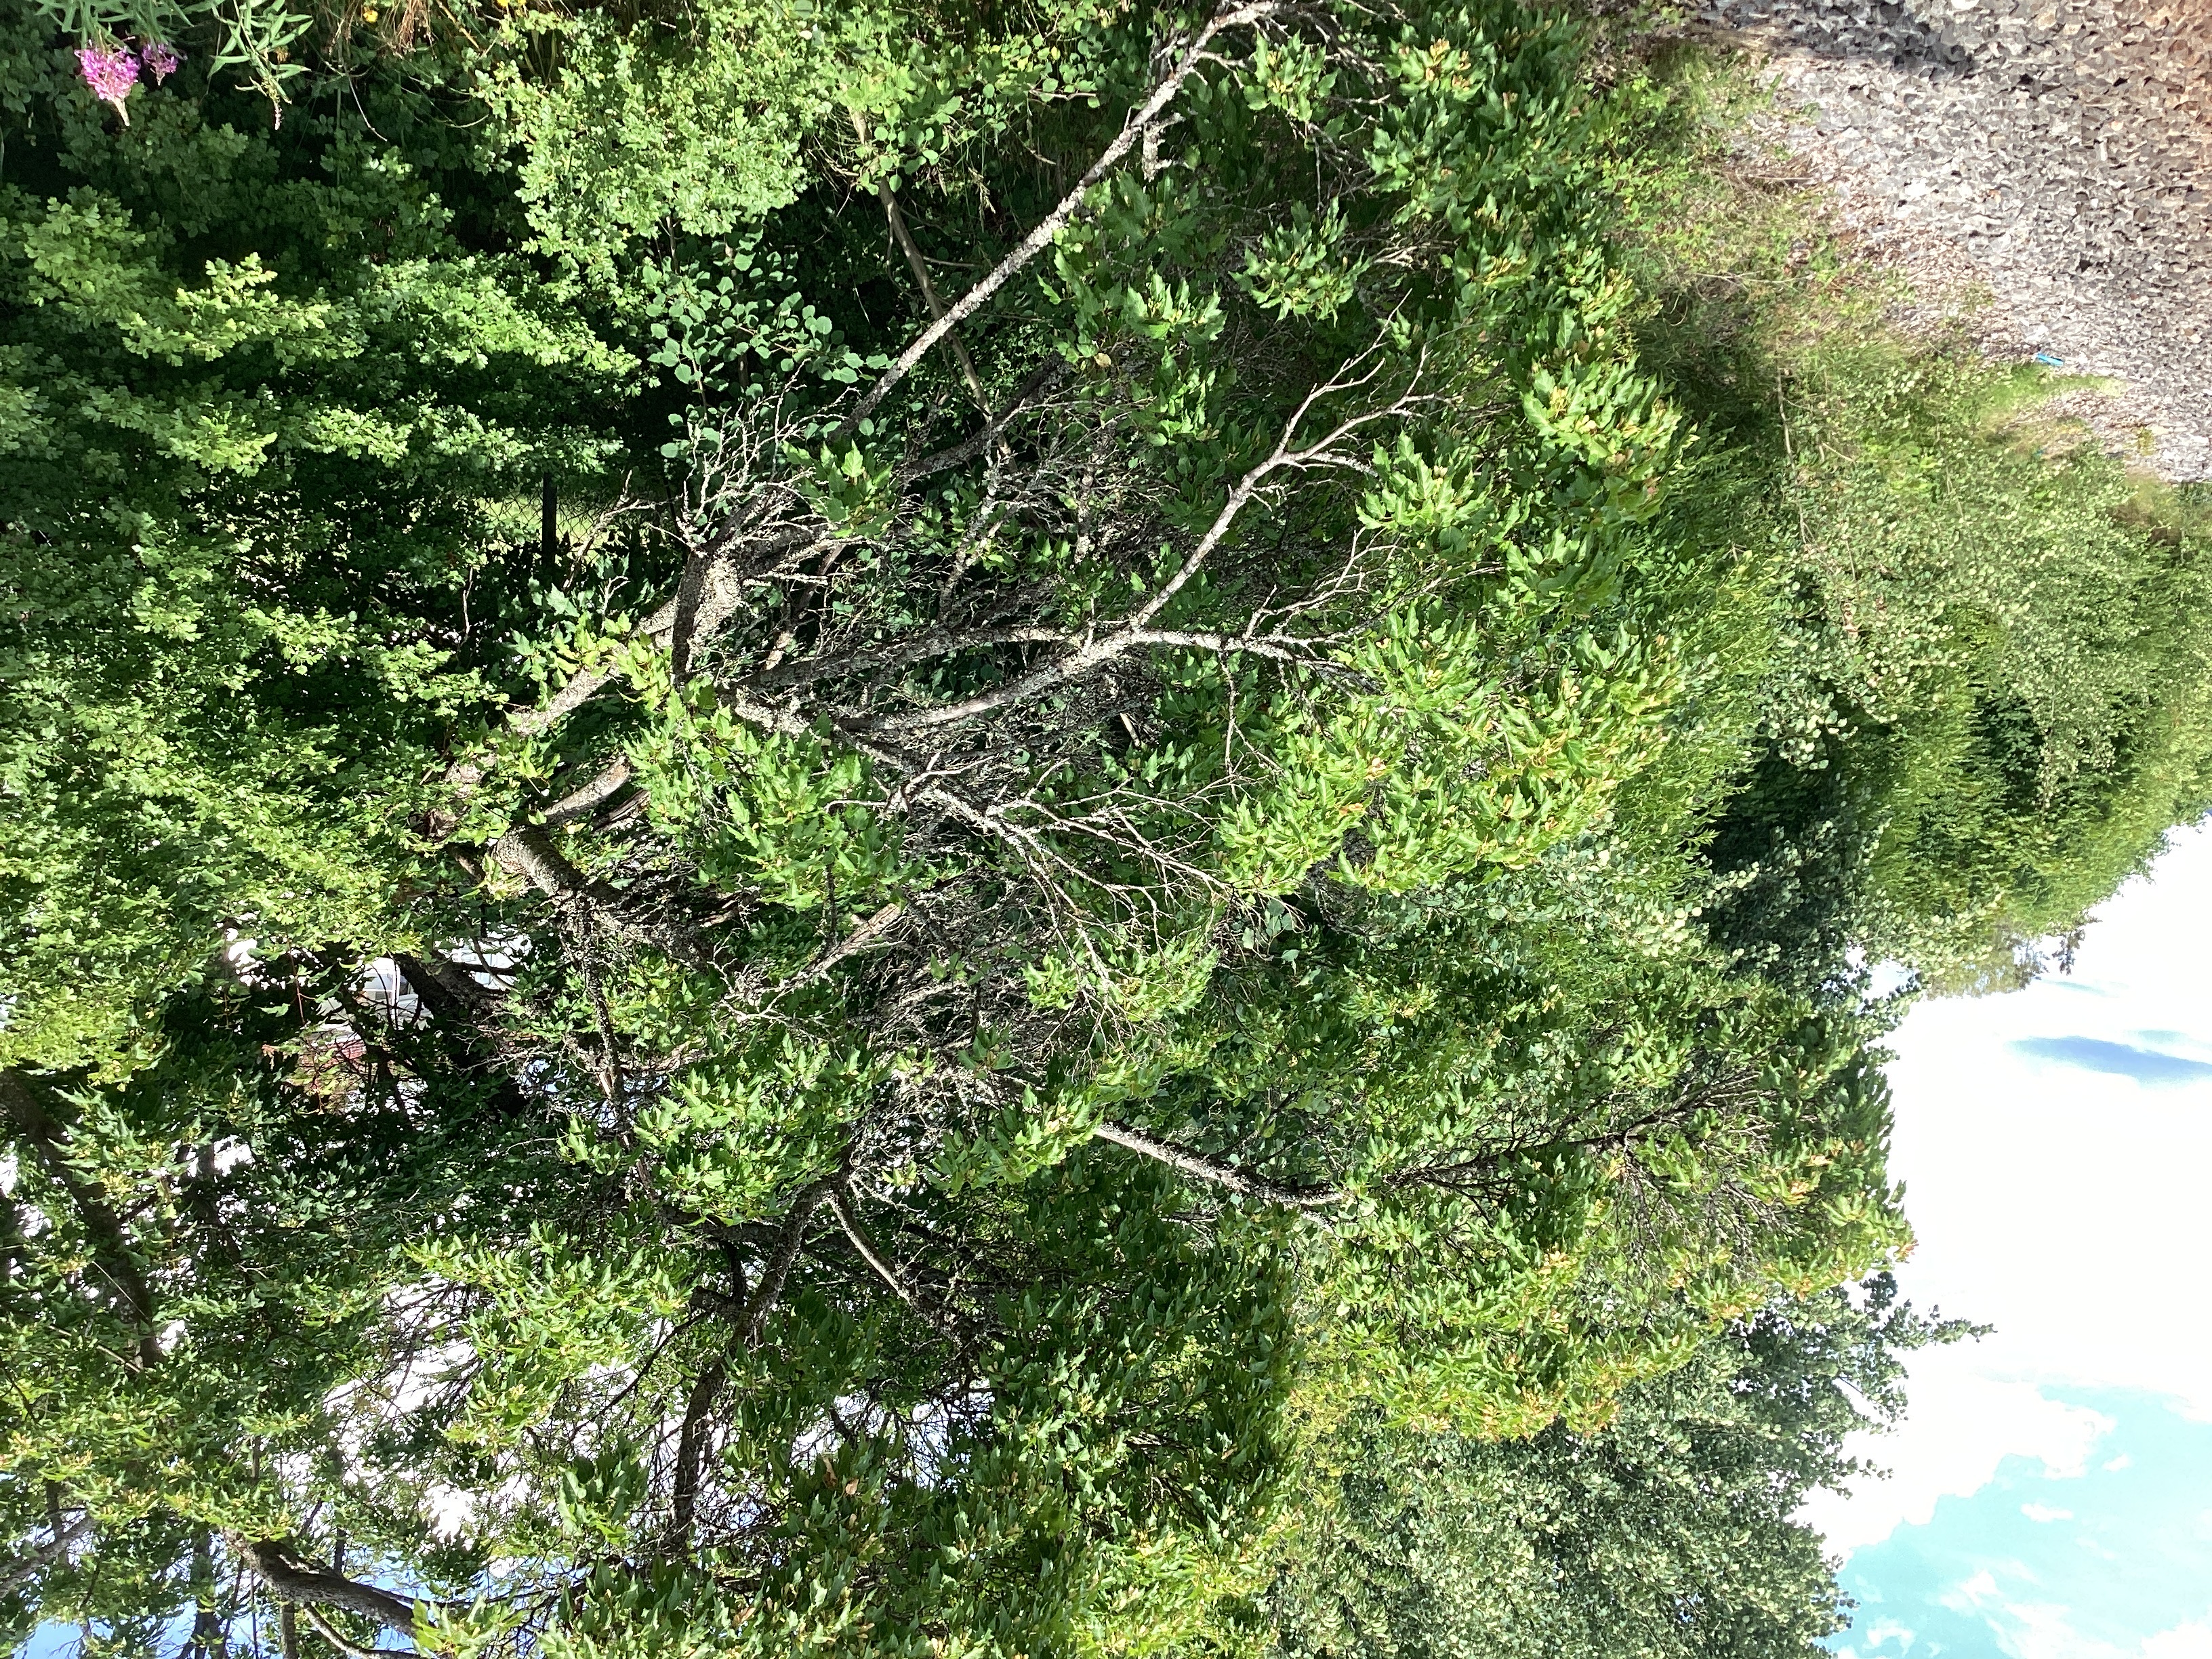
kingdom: Plantae
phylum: Tracheophyta
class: Magnoliopsida
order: Sapindales
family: Sapindaceae
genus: Acer
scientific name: Acer tataricum
